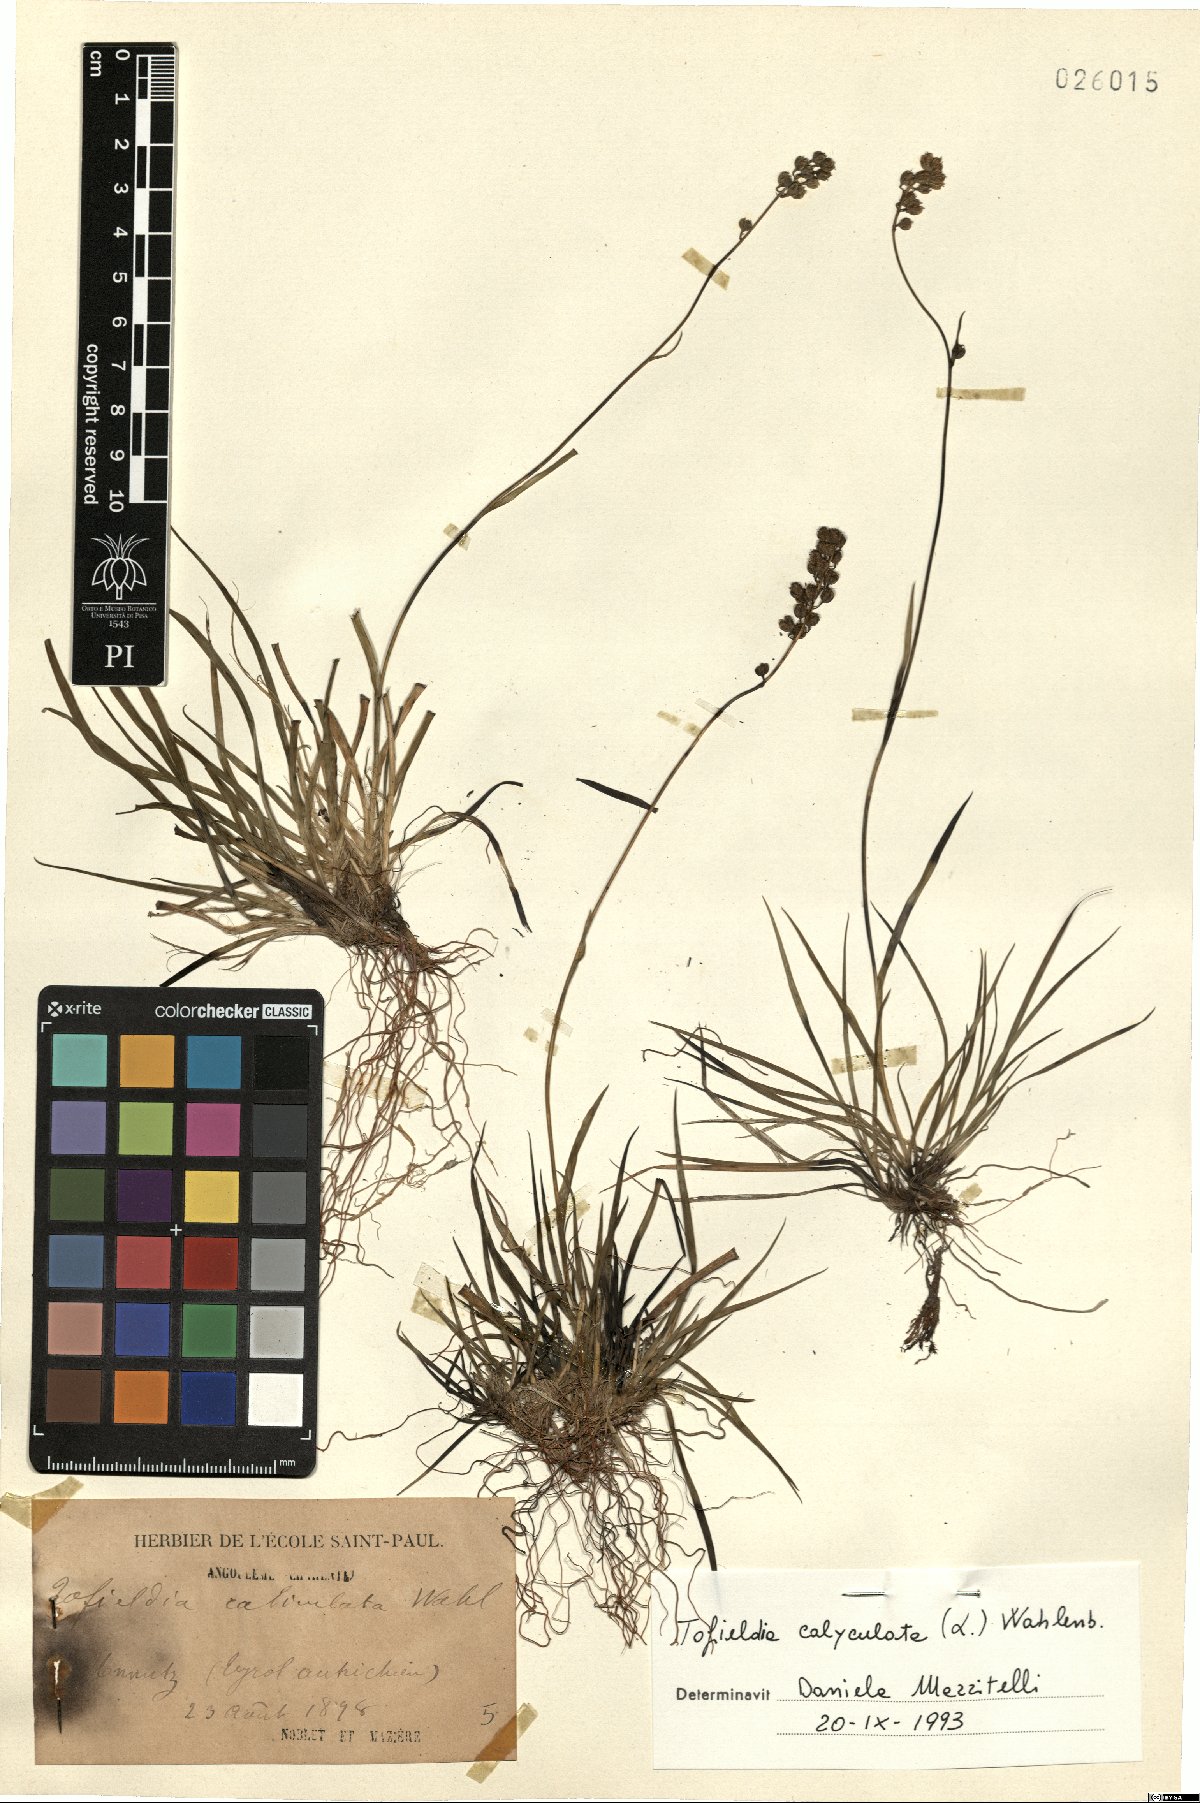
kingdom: Plantae
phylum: Tracheophyta
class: Liliopsida
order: Alismatales
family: Tofieldiaceae
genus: Tofieldia
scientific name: Tofieldia calyculata
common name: German-asphodel
